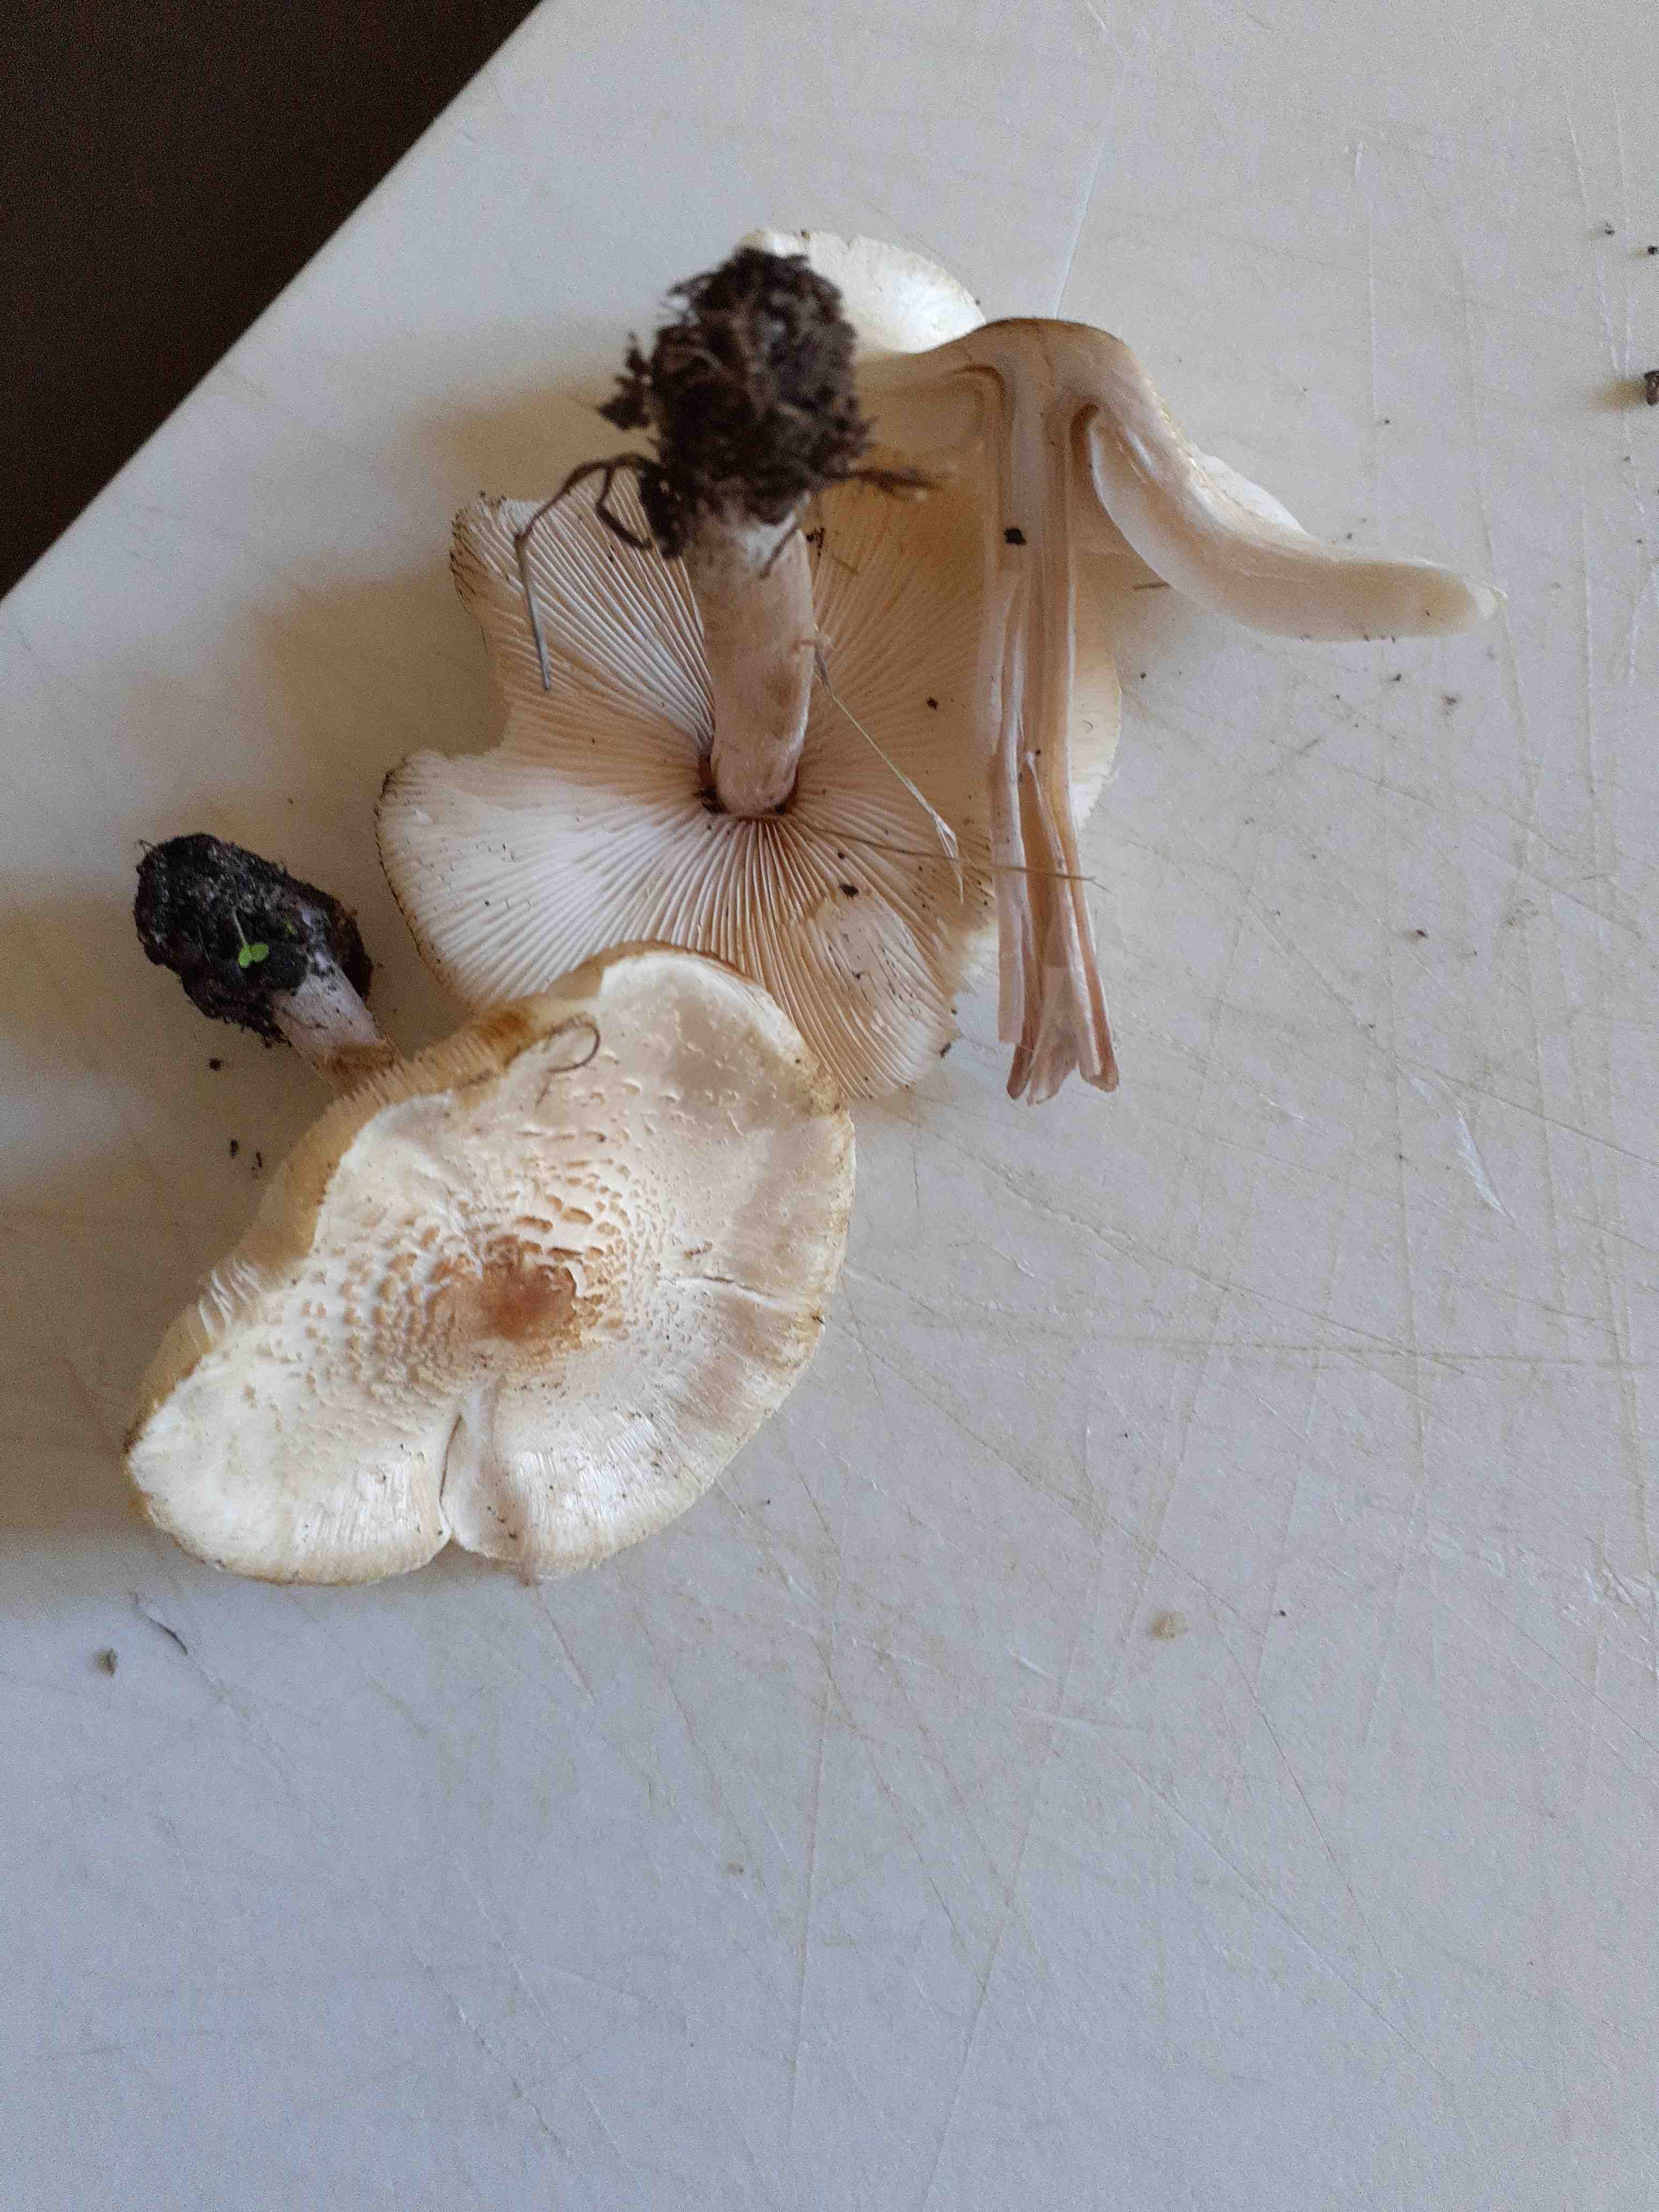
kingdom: Fungi
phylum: Basidiomycota
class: Agaricomycetes
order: Agaricales
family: Agaricaceae
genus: Lepiota
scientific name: Lepiota cristata
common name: stinkende parasolhat
